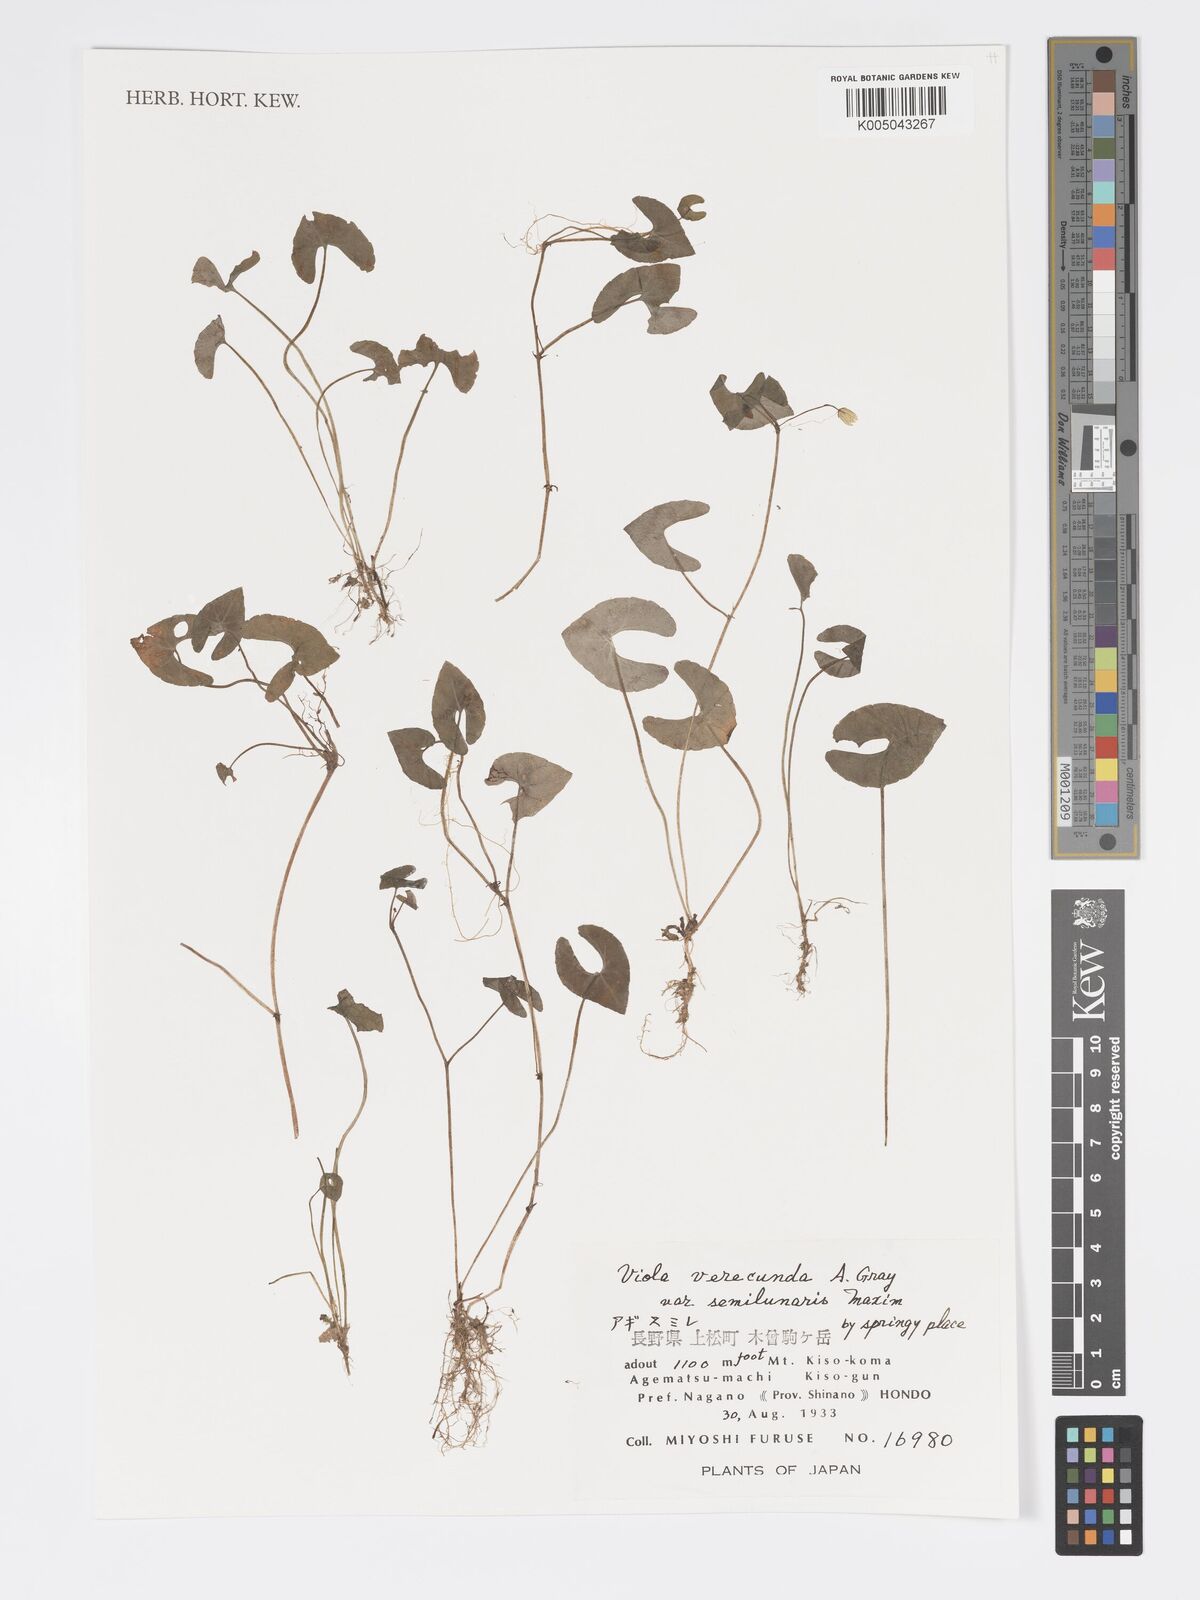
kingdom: Plantae
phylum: Tracheophyta
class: Magnoliopsida
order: Malpighiales
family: Violaceae
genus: Viola
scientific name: Viola hamiltoniana
